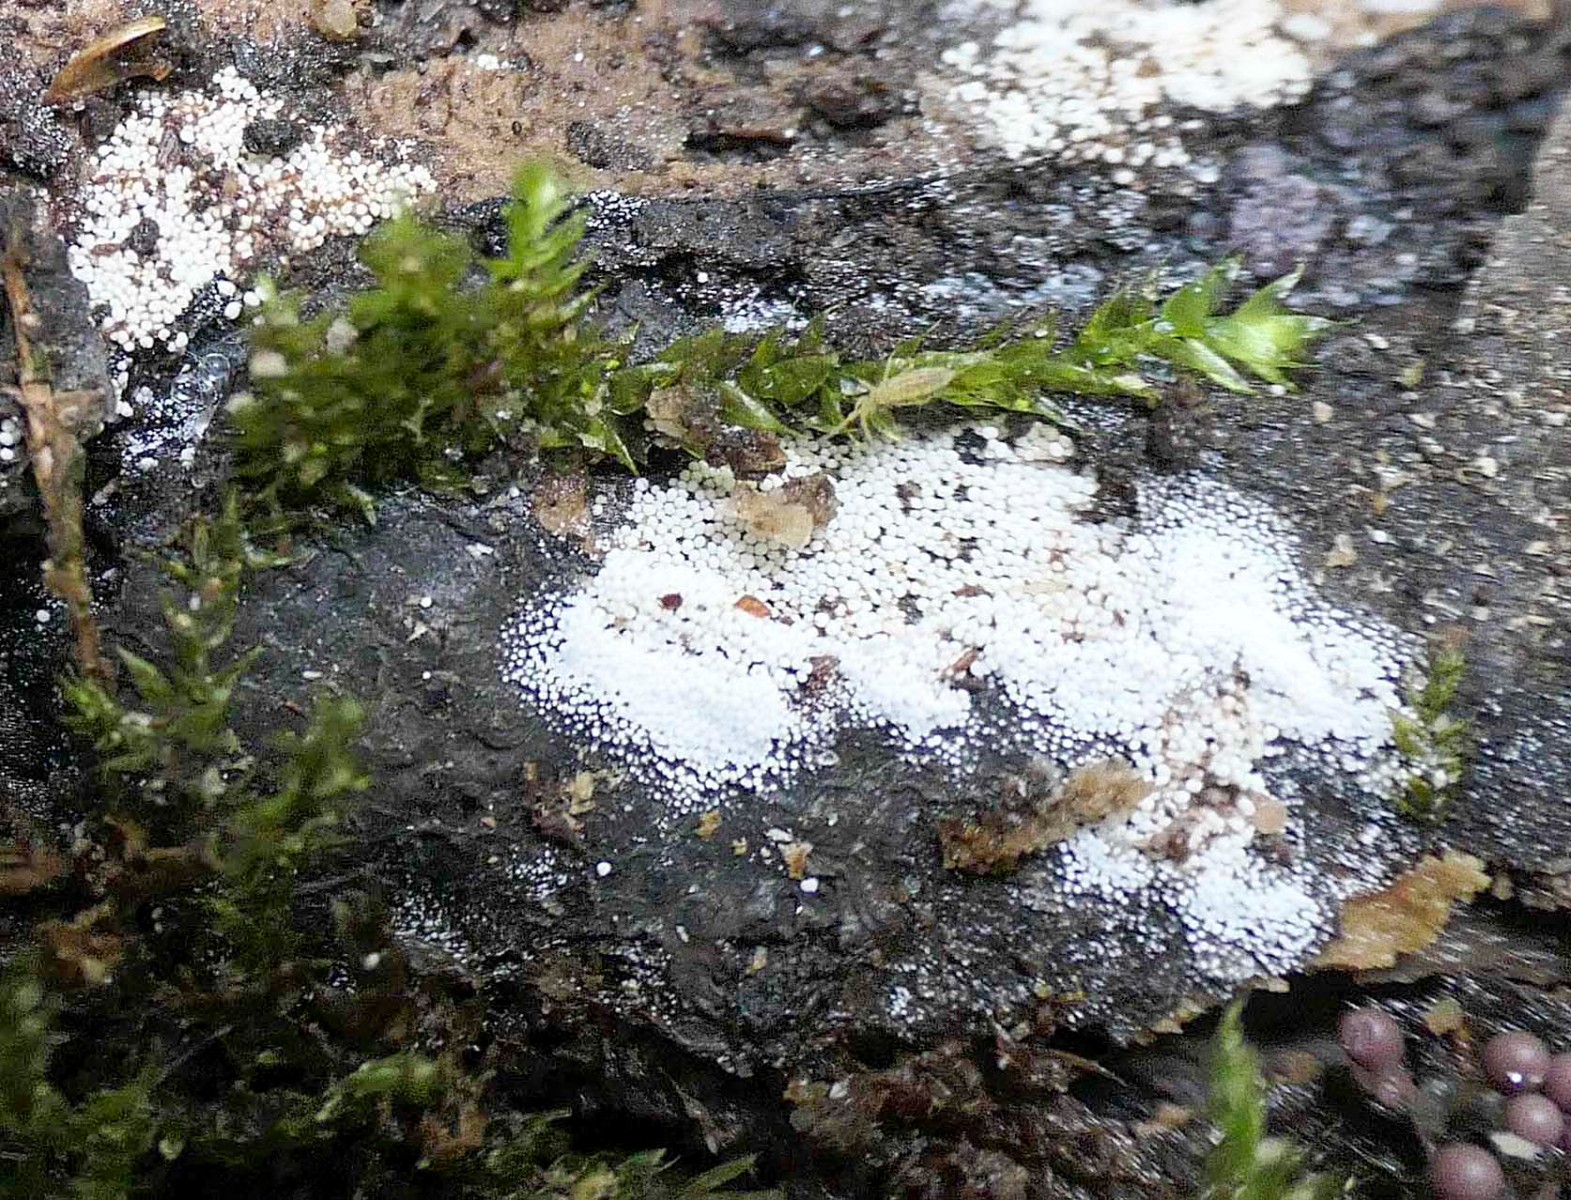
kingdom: Fungi
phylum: Basidiomycota
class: Agaricomycetes
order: Polyporales
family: Meruliaceae
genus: Bulbillomyces
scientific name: Bulbillomyces farinosus
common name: æg-kalkskind
